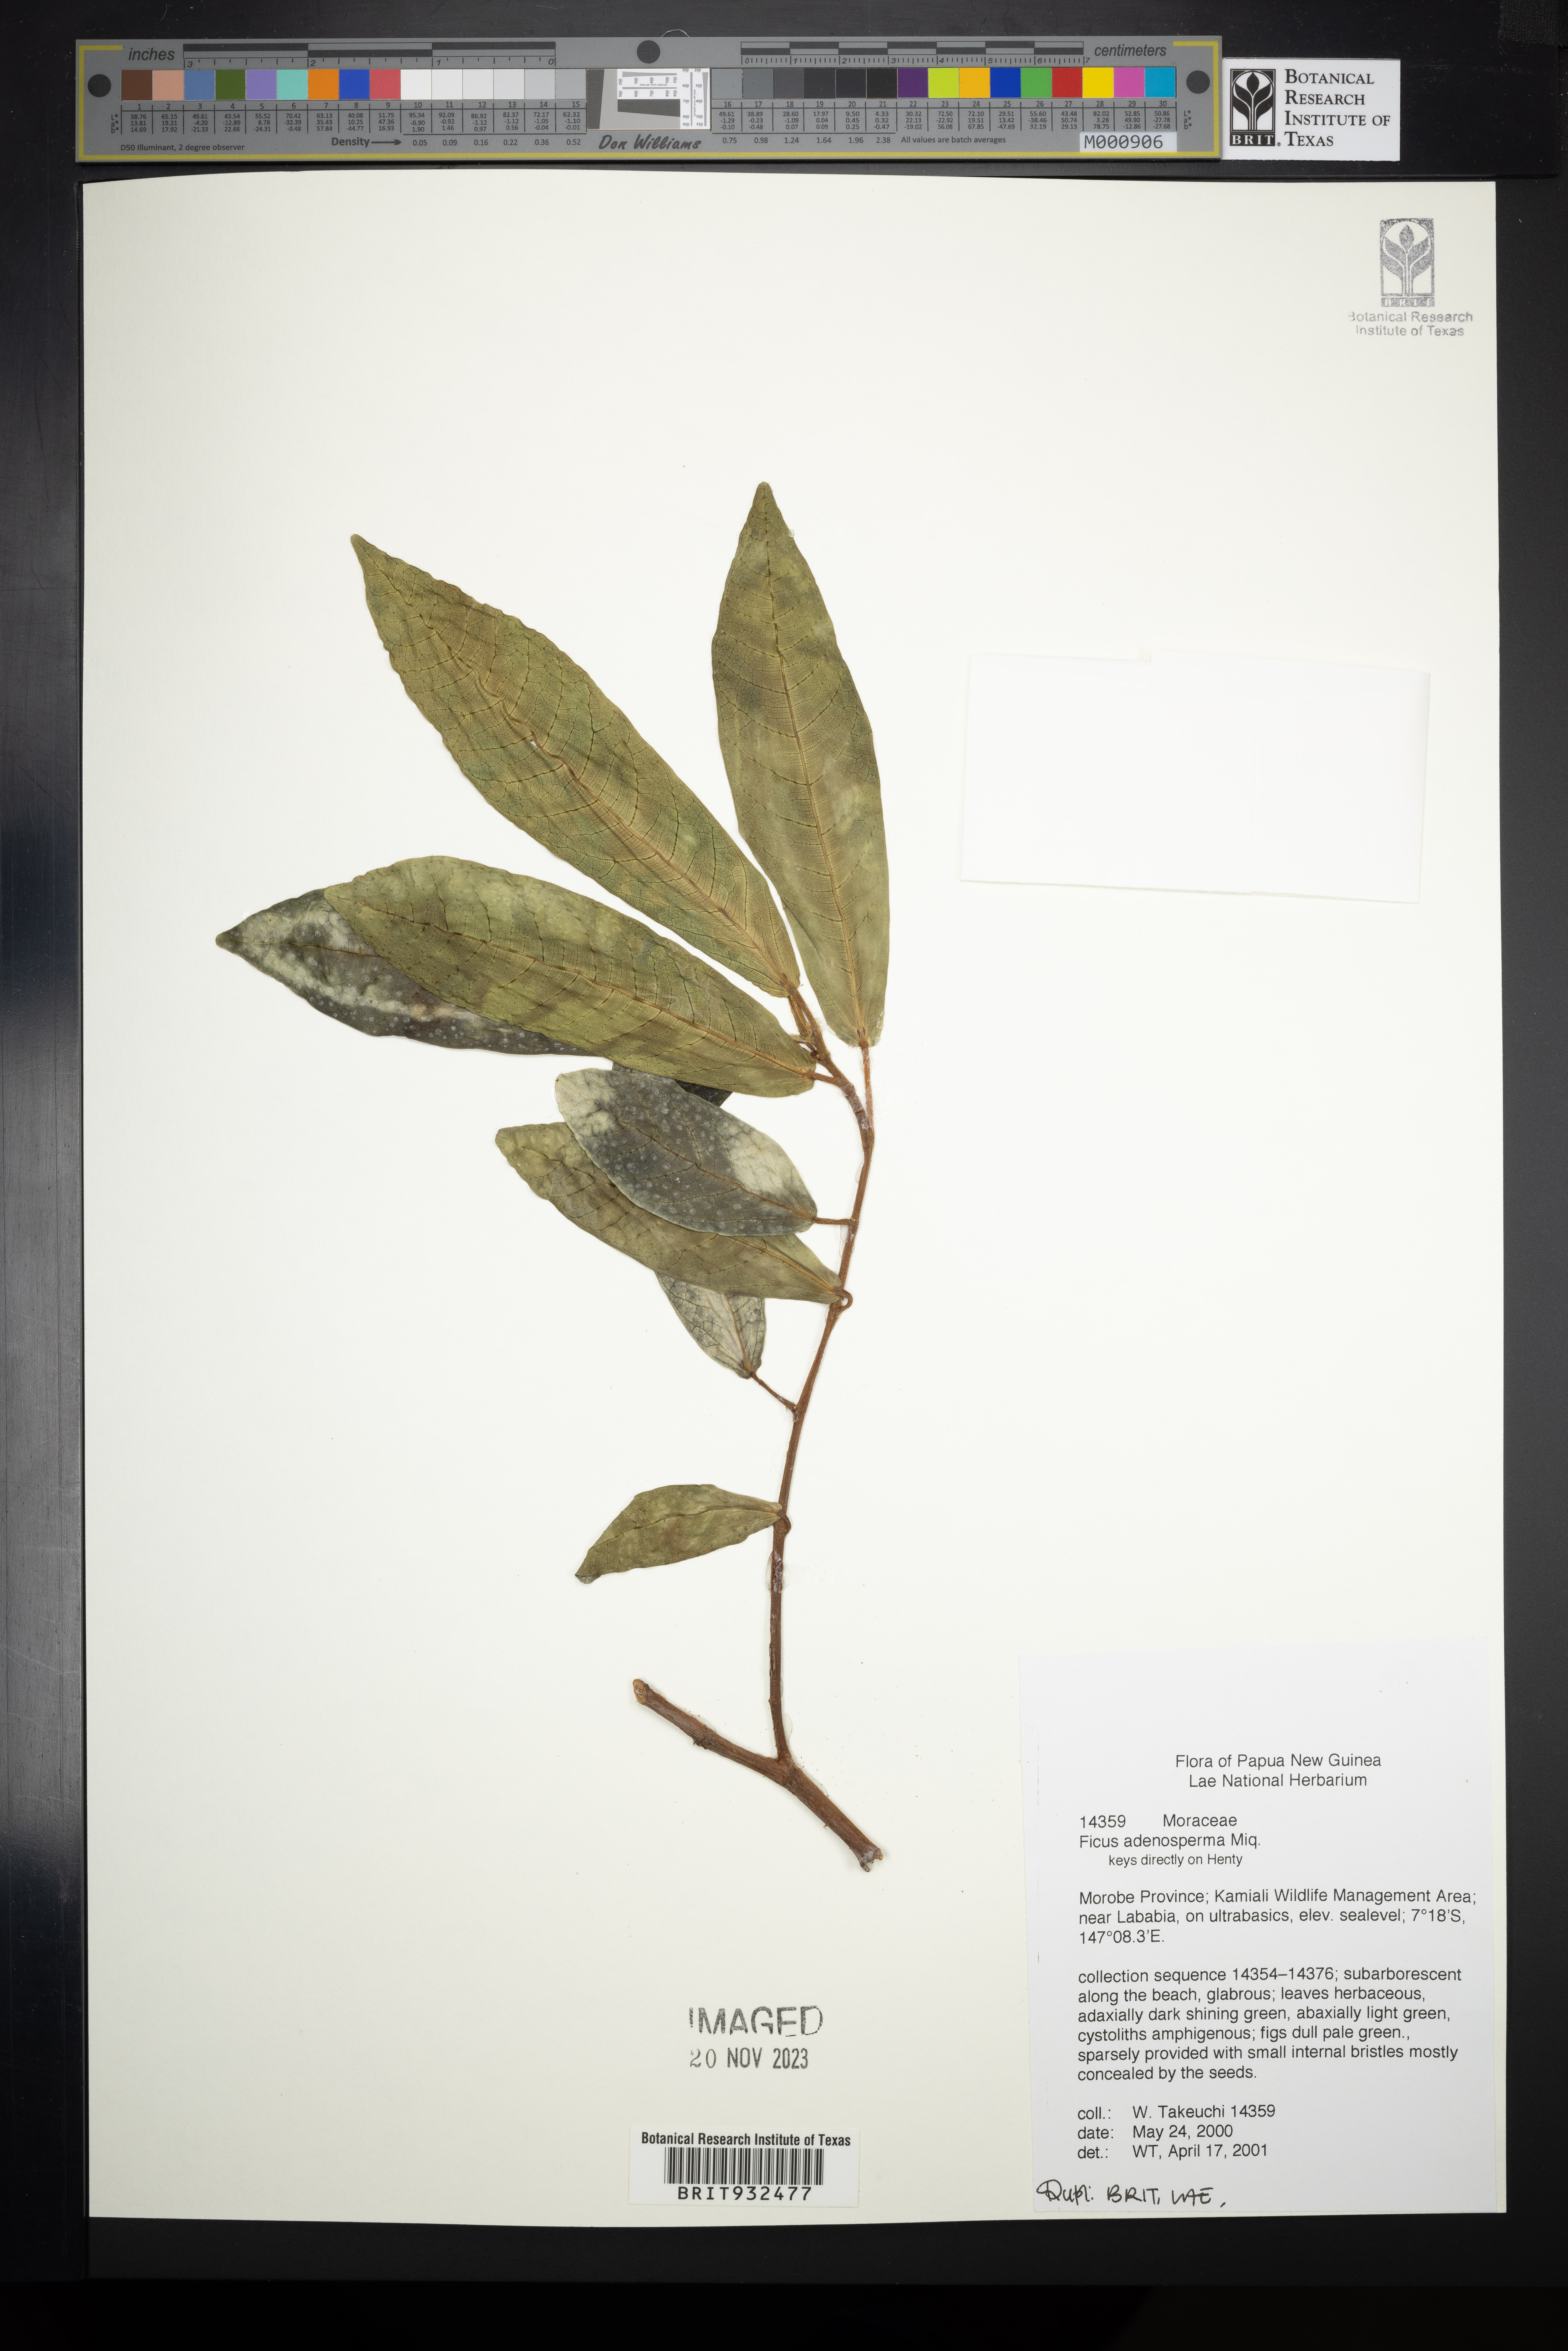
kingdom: Plantae
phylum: Tracheophyta
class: Magnoliopsida
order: Rosales
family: Moraceae
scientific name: Moraceae
